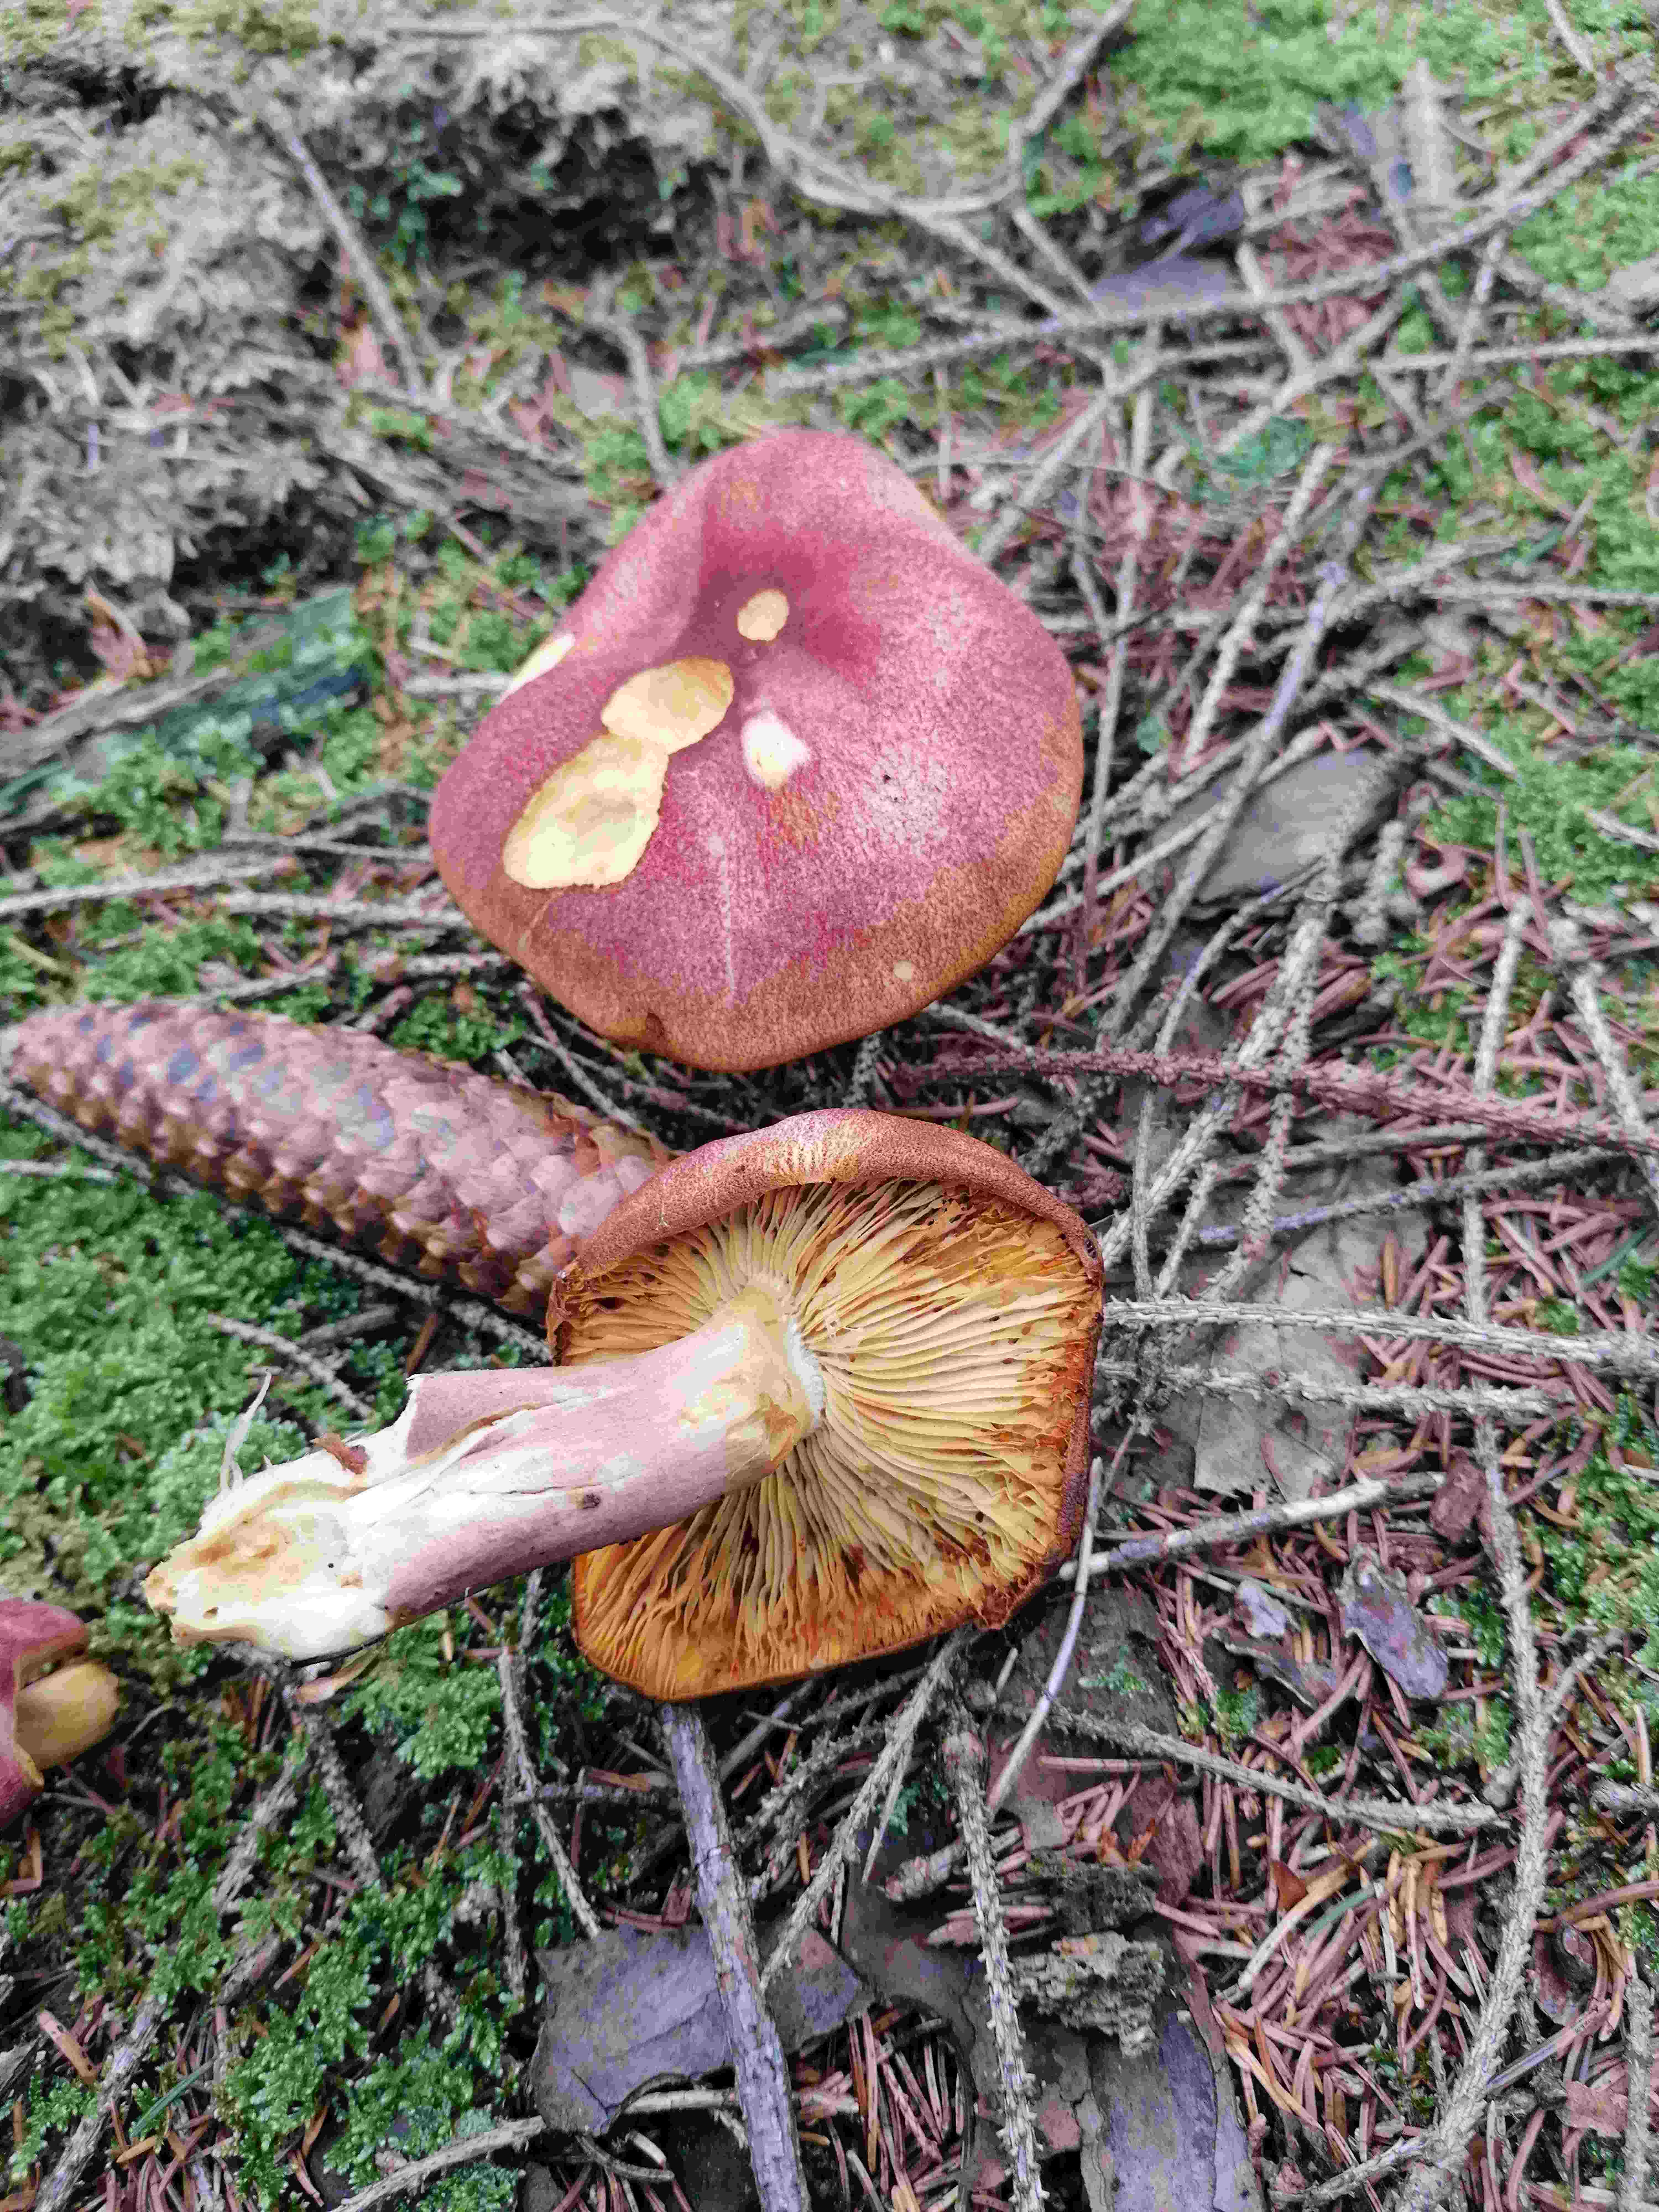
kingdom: Fungi
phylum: Basidiomycota
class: Agaricomycetes
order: Agaricales
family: Tricholomataceae
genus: Tricholomopsis
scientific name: Tricholomopsis rutilans
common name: purpur-væbnerhat
